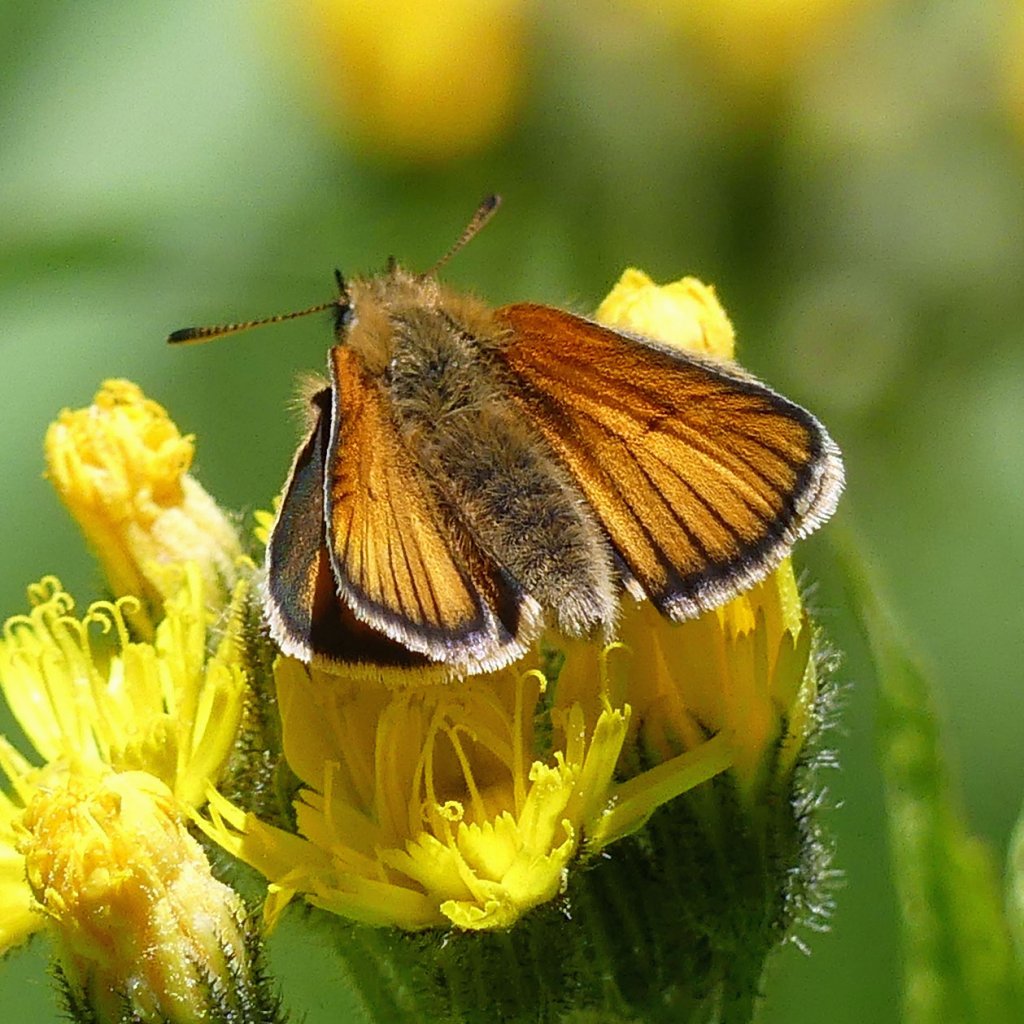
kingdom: Animalia
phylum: Arthropoda
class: Insecta
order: Lepidoptera
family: Hesperiidae
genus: Thymelicus
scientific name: Thymelicus lineola
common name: European Skipper
